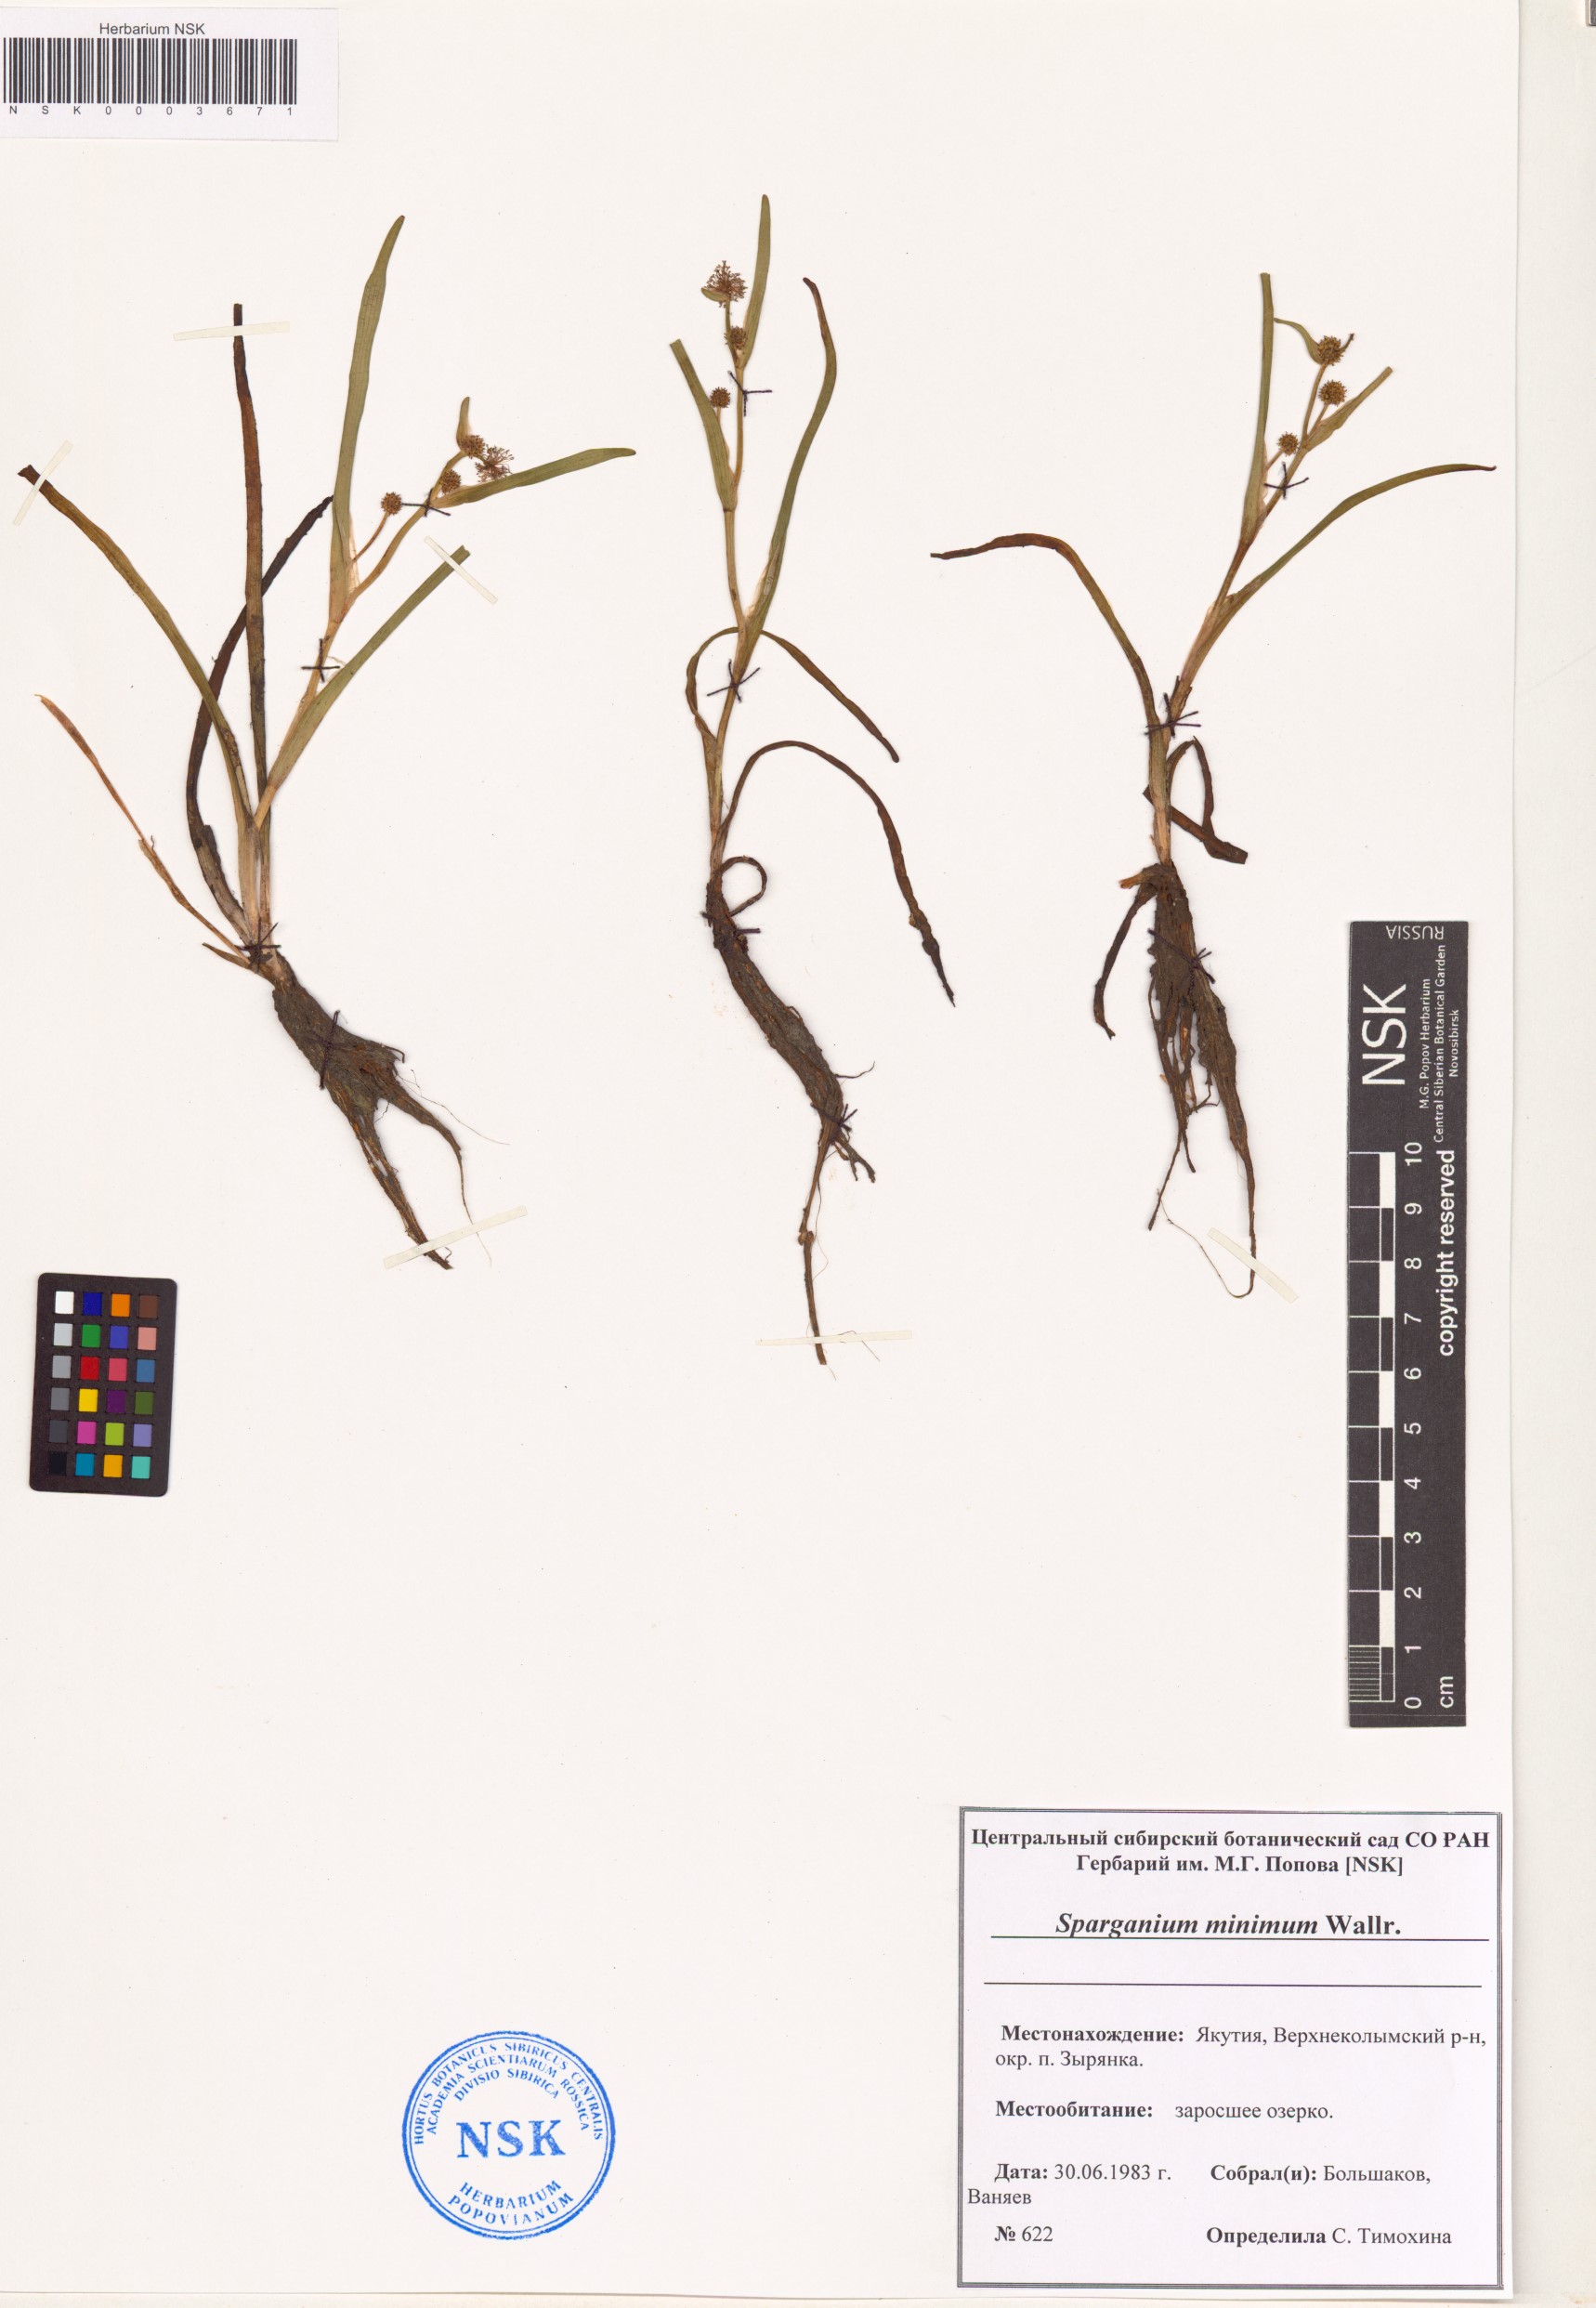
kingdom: Plantae
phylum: Tracheophyta
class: Liliopsida
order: Poales
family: Typhaceae
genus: Sparganium
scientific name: Sparganium natans
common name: Least bur-reed
